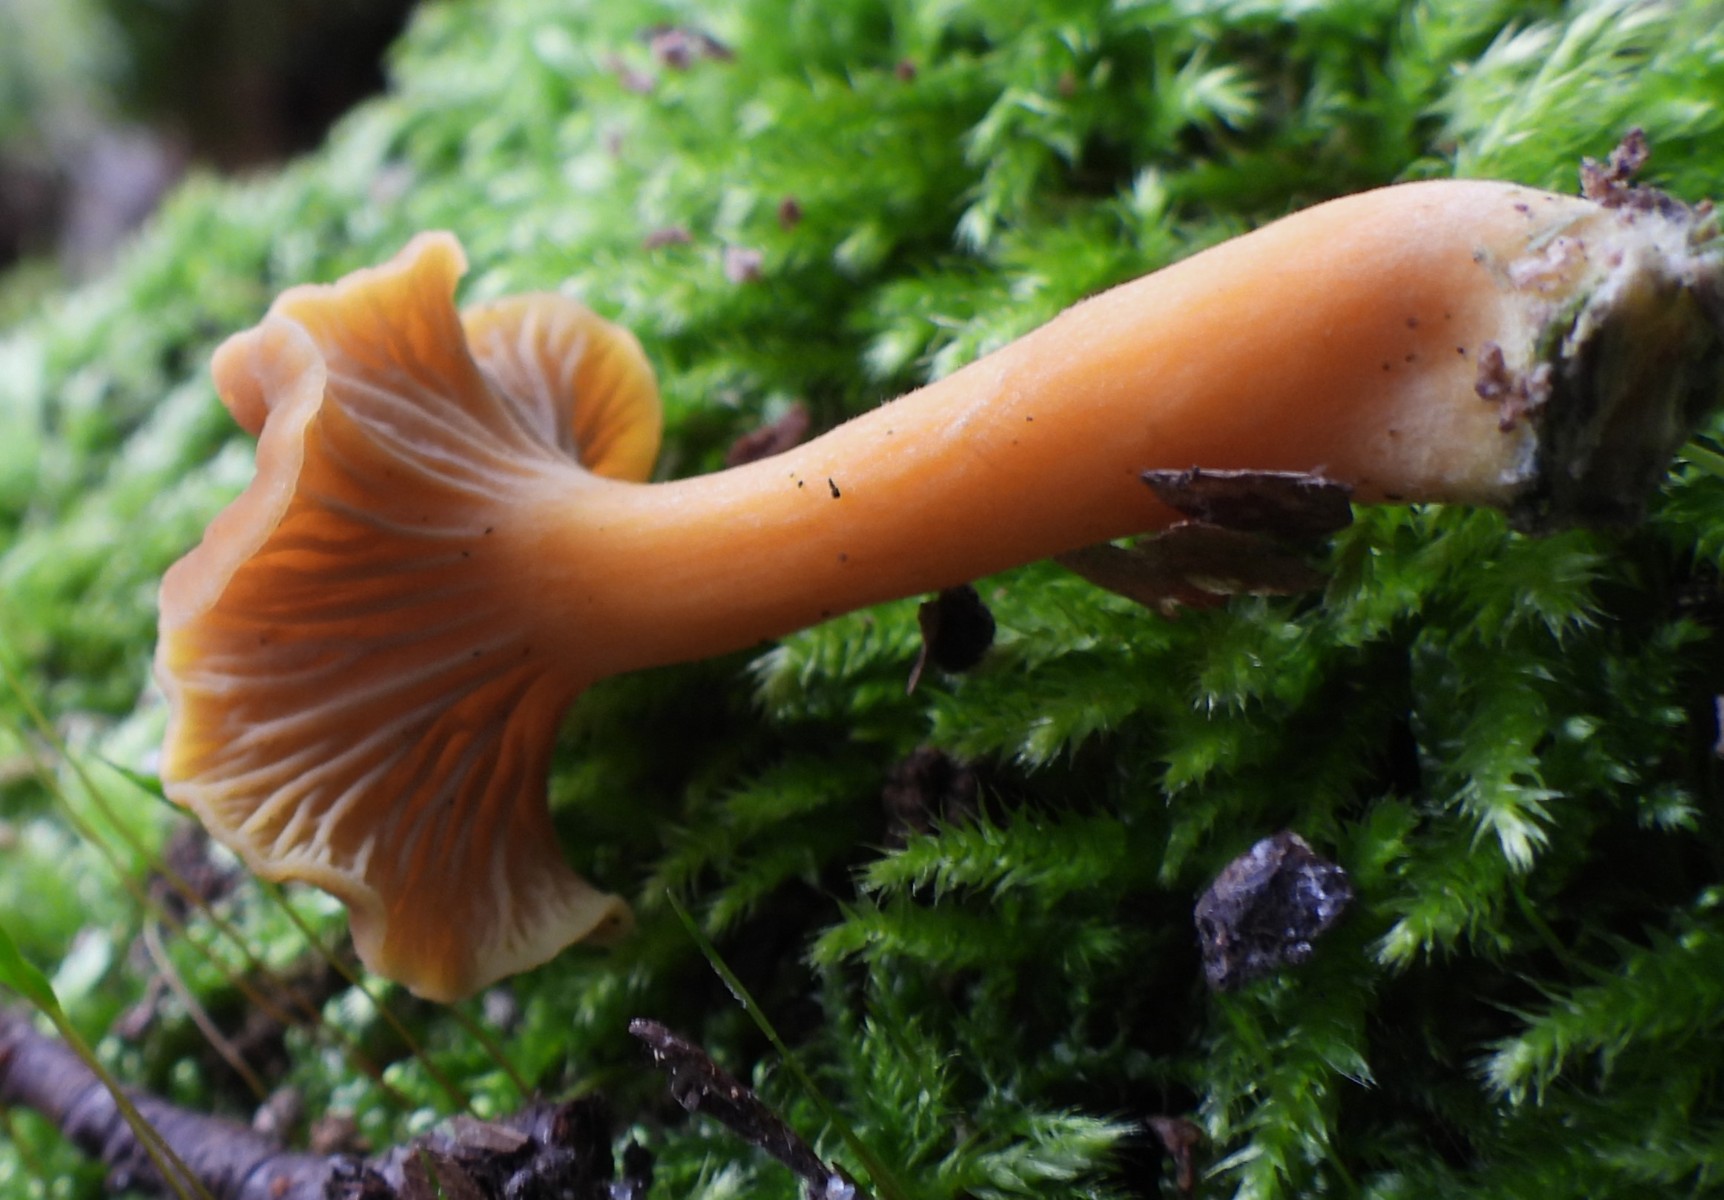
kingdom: Fungi
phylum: Basidiomycota
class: Agaricomycetes
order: Cantharellales
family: Hydnaceae
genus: Craterellus
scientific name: Craterellus tubaeformis
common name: tragt-kantarel
